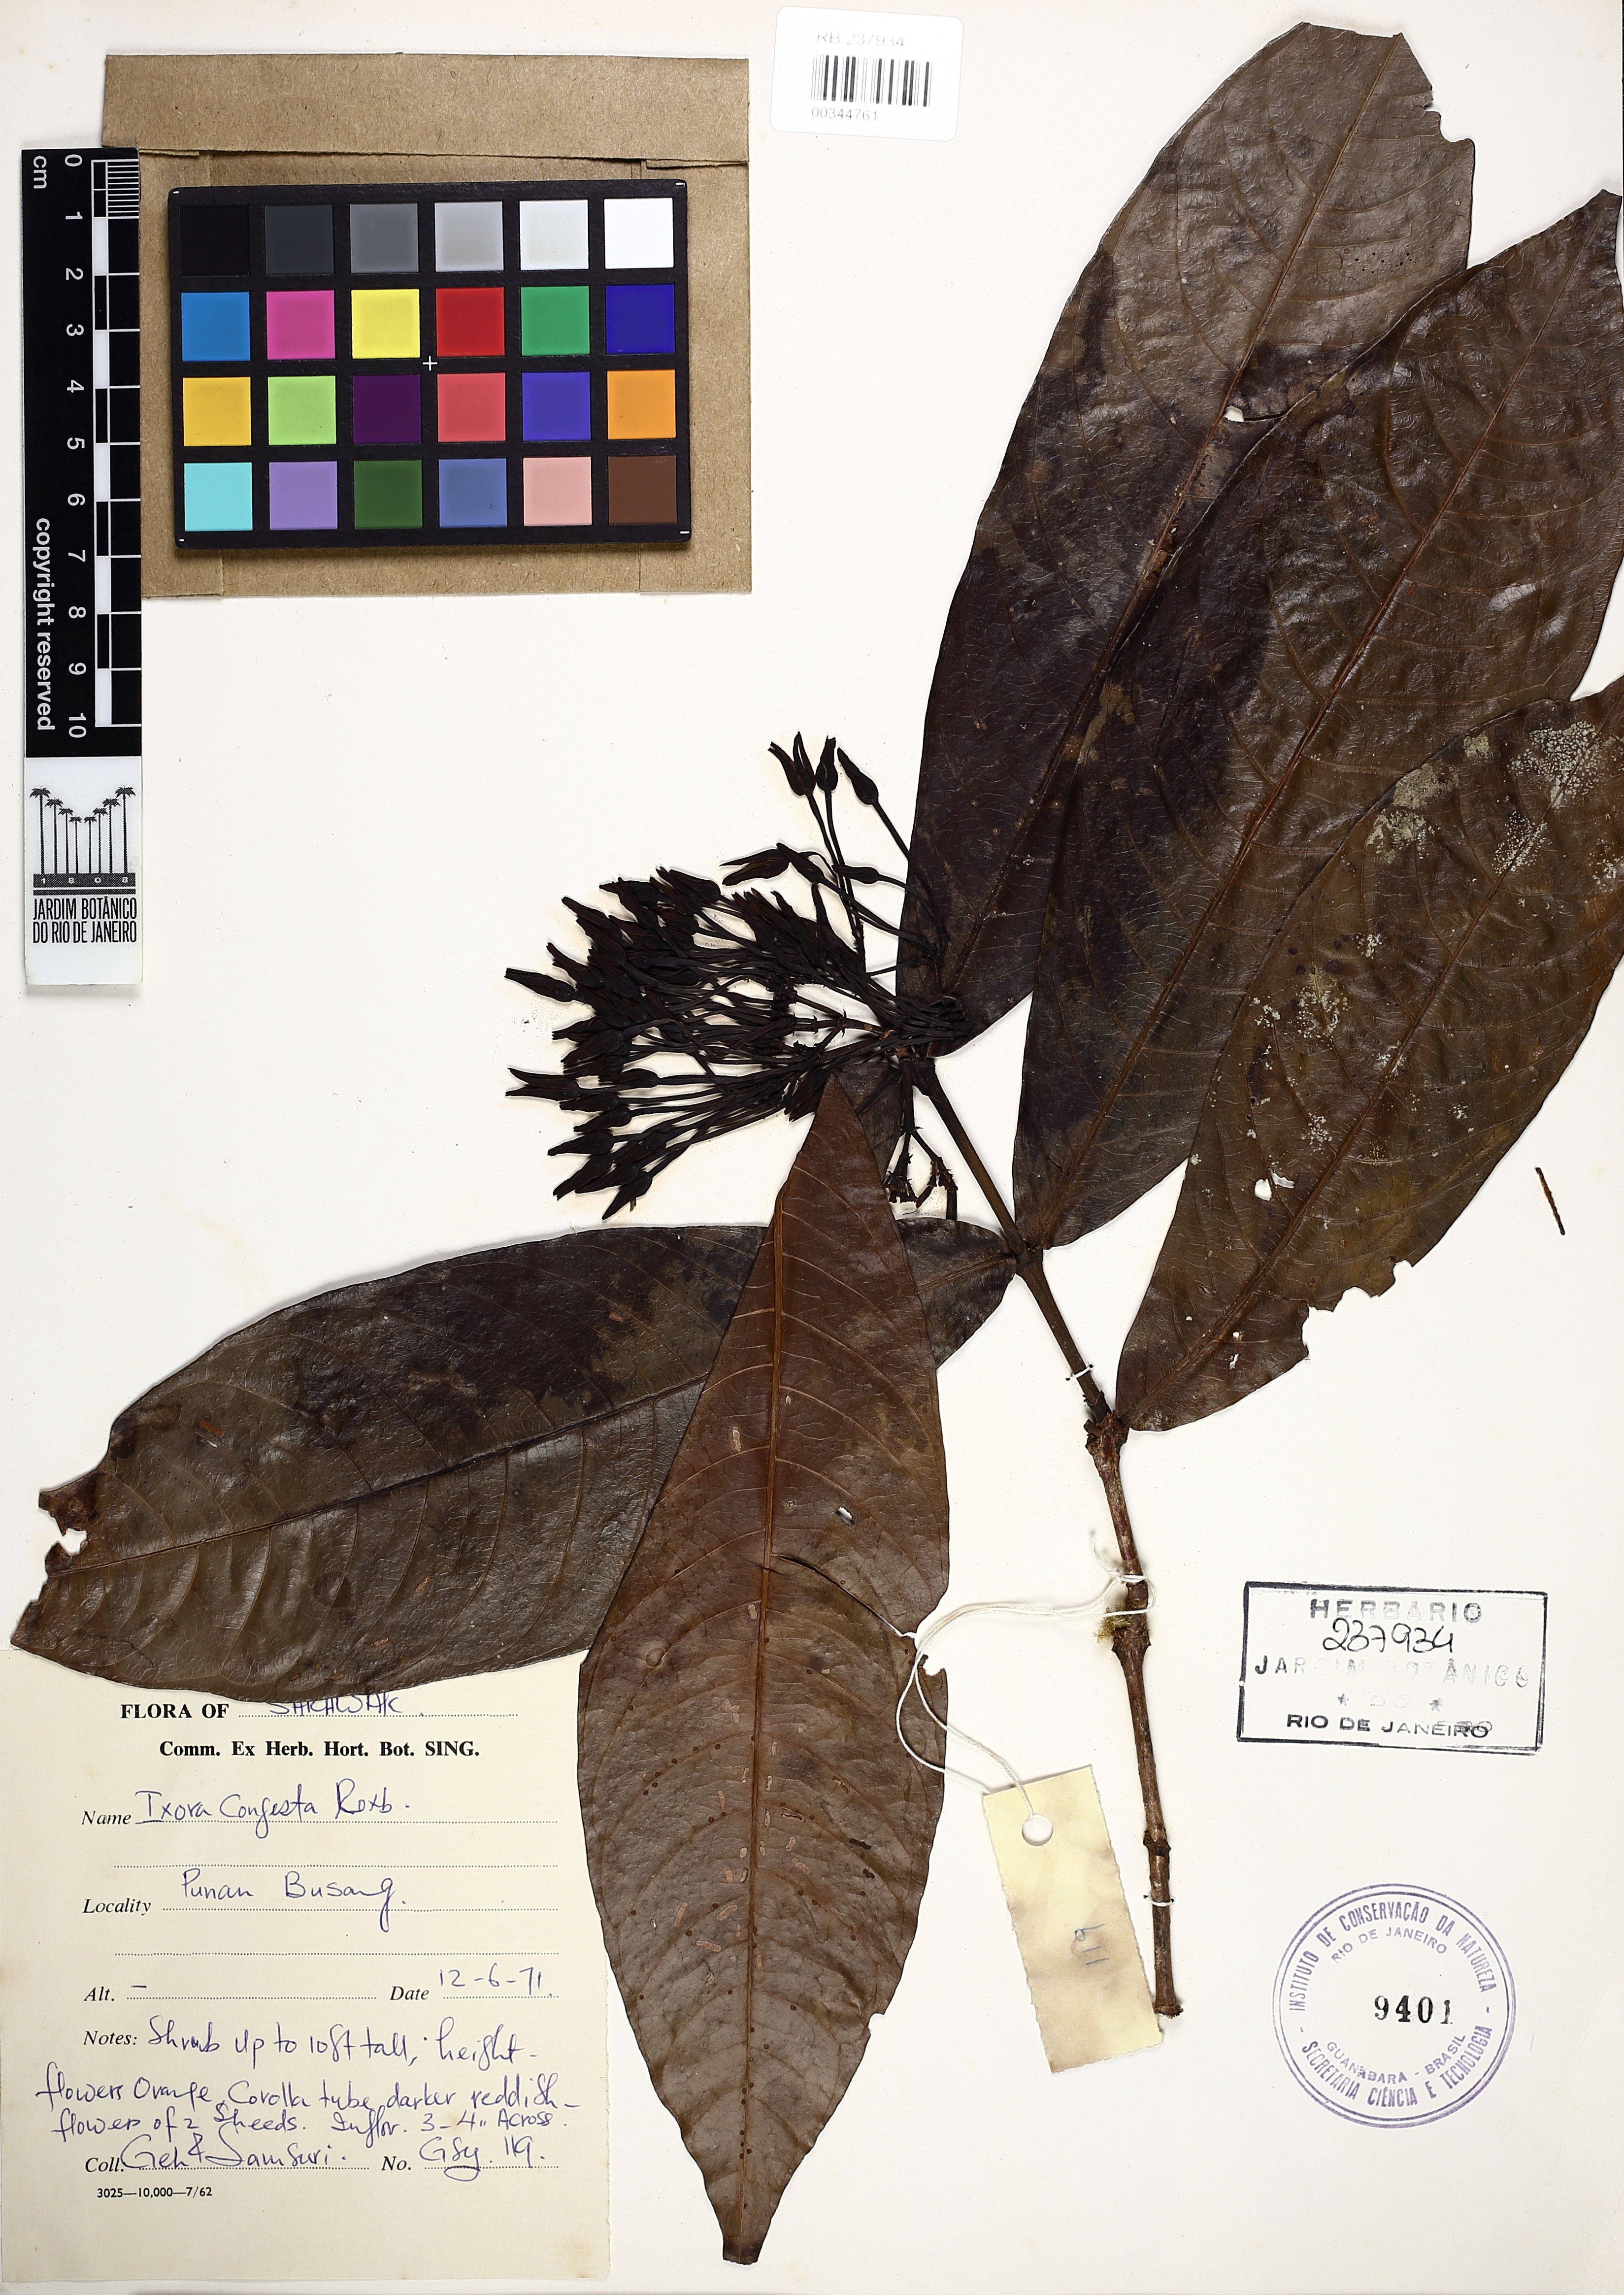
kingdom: Plantae
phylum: Tracheophyta
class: Magnoliopsida
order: Gentianales
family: Rubiaceae
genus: Ixora
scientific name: Ixora congesta
